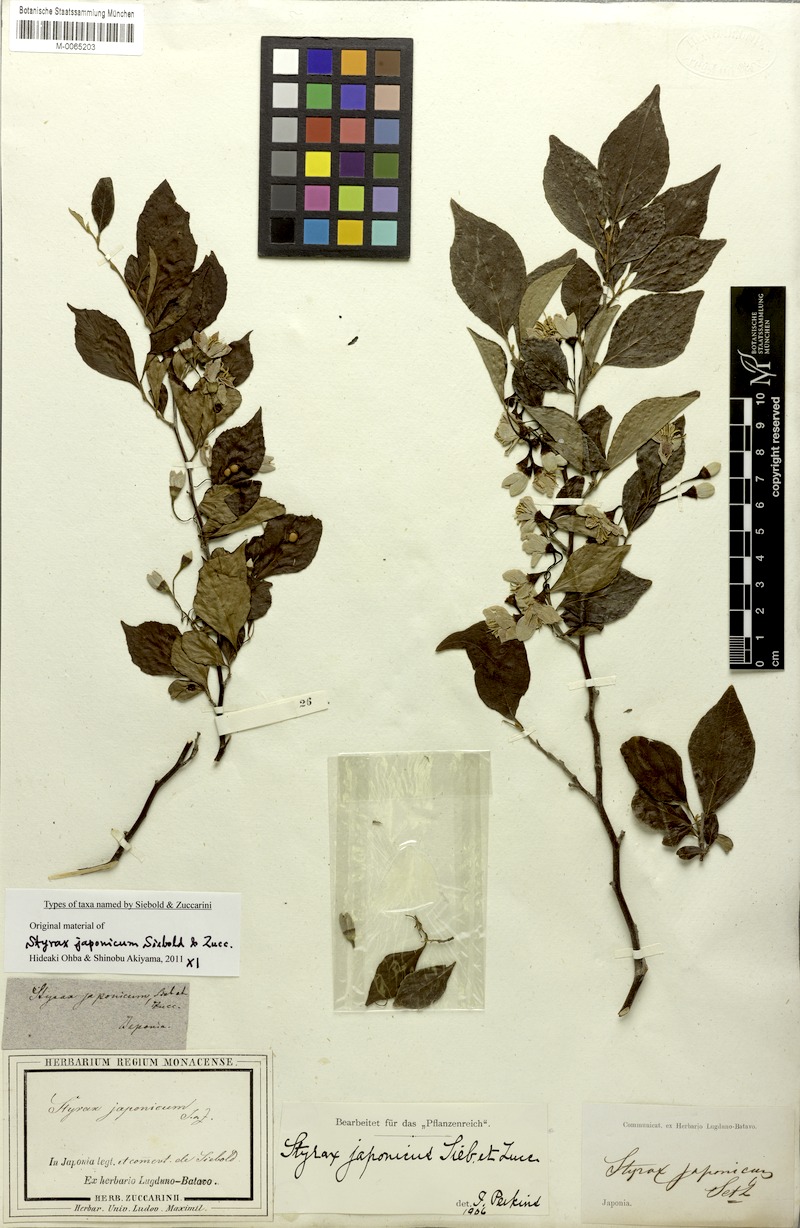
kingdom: Plantae
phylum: Tracheophyta
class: Magnoliopsida
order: Ericales
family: Styracaceae
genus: Styrax
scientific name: Styrax japonicus
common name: Japanese snowbell
